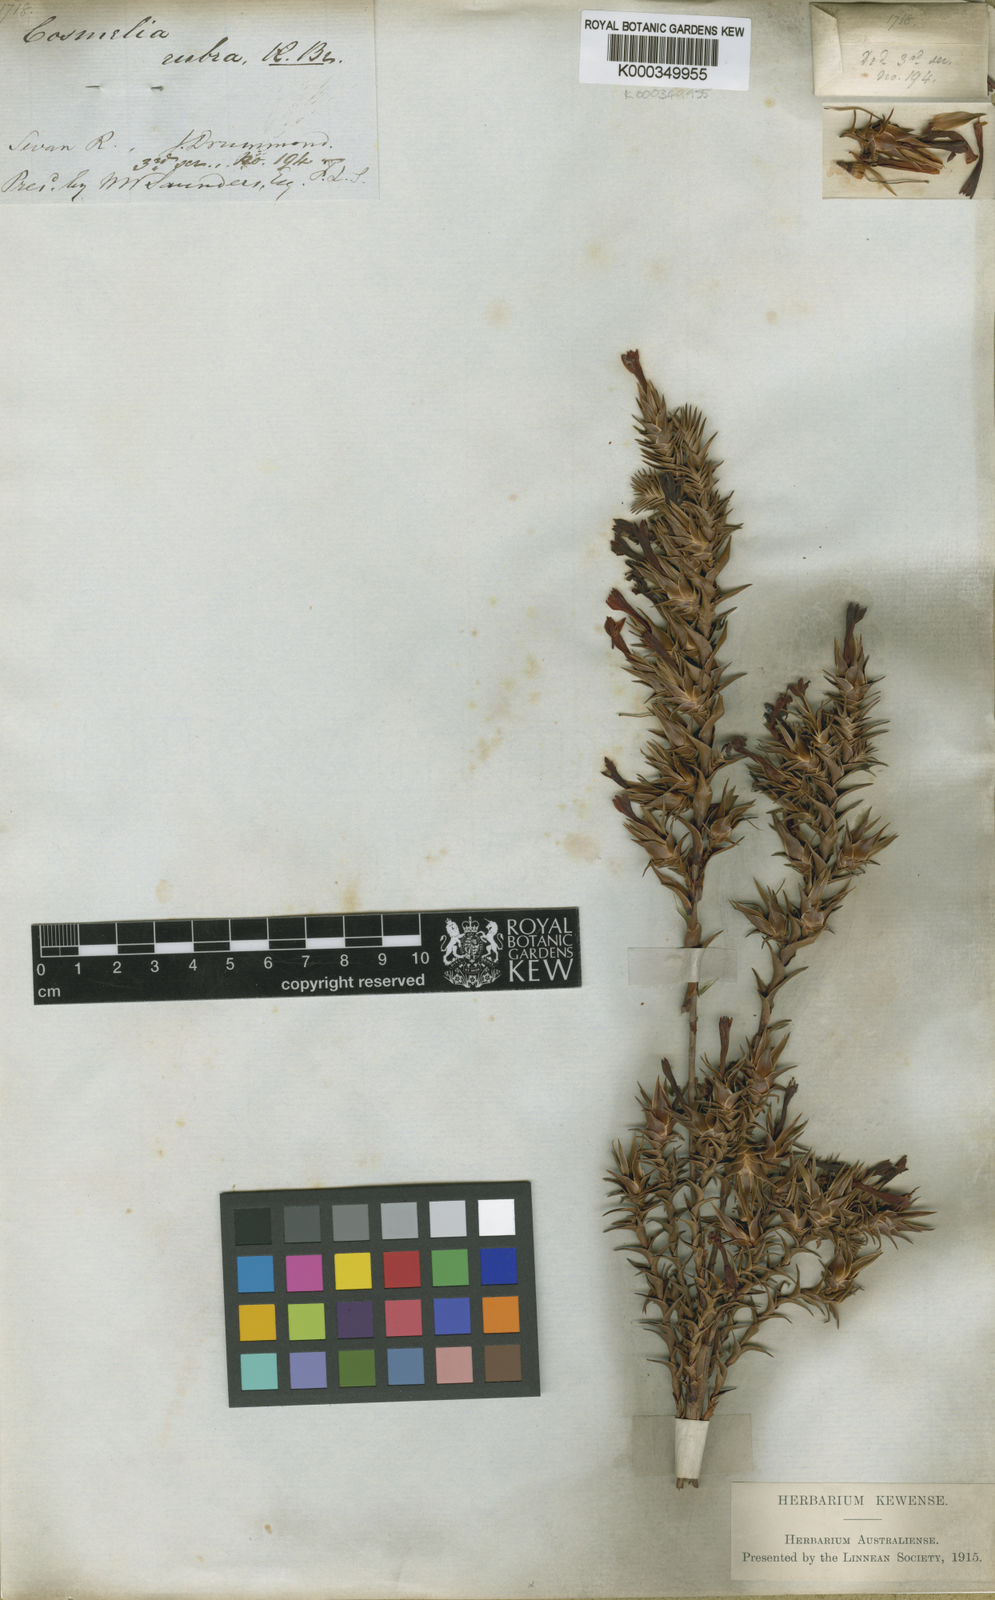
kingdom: Plantae
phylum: Tracheophyta
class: Magnoliopsida
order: Ericales
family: Ericaceae
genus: Cosmelia
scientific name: Cosmelia rubra
